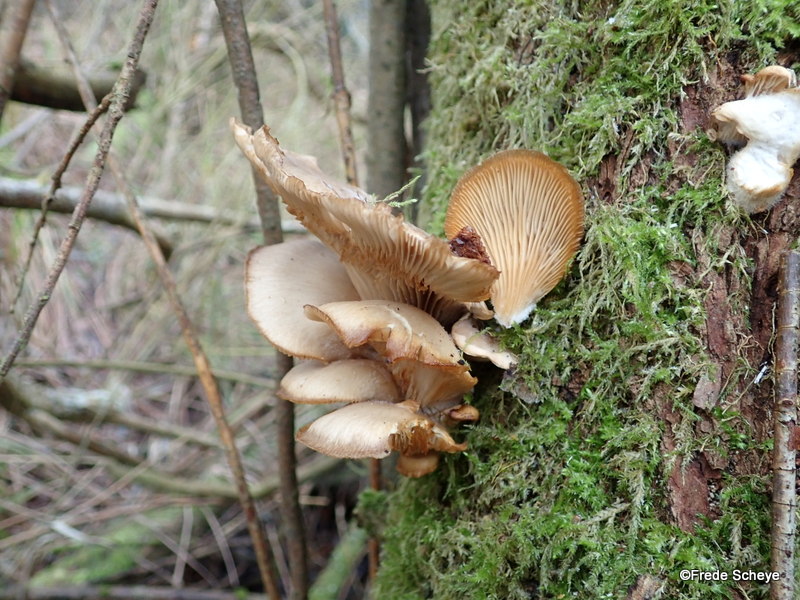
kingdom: Fungi
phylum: Basidiomycota
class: Agaricomycetes
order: Agaricales
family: Pleurotaceae
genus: Pleurotus
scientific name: Pleurotus ostreatus
